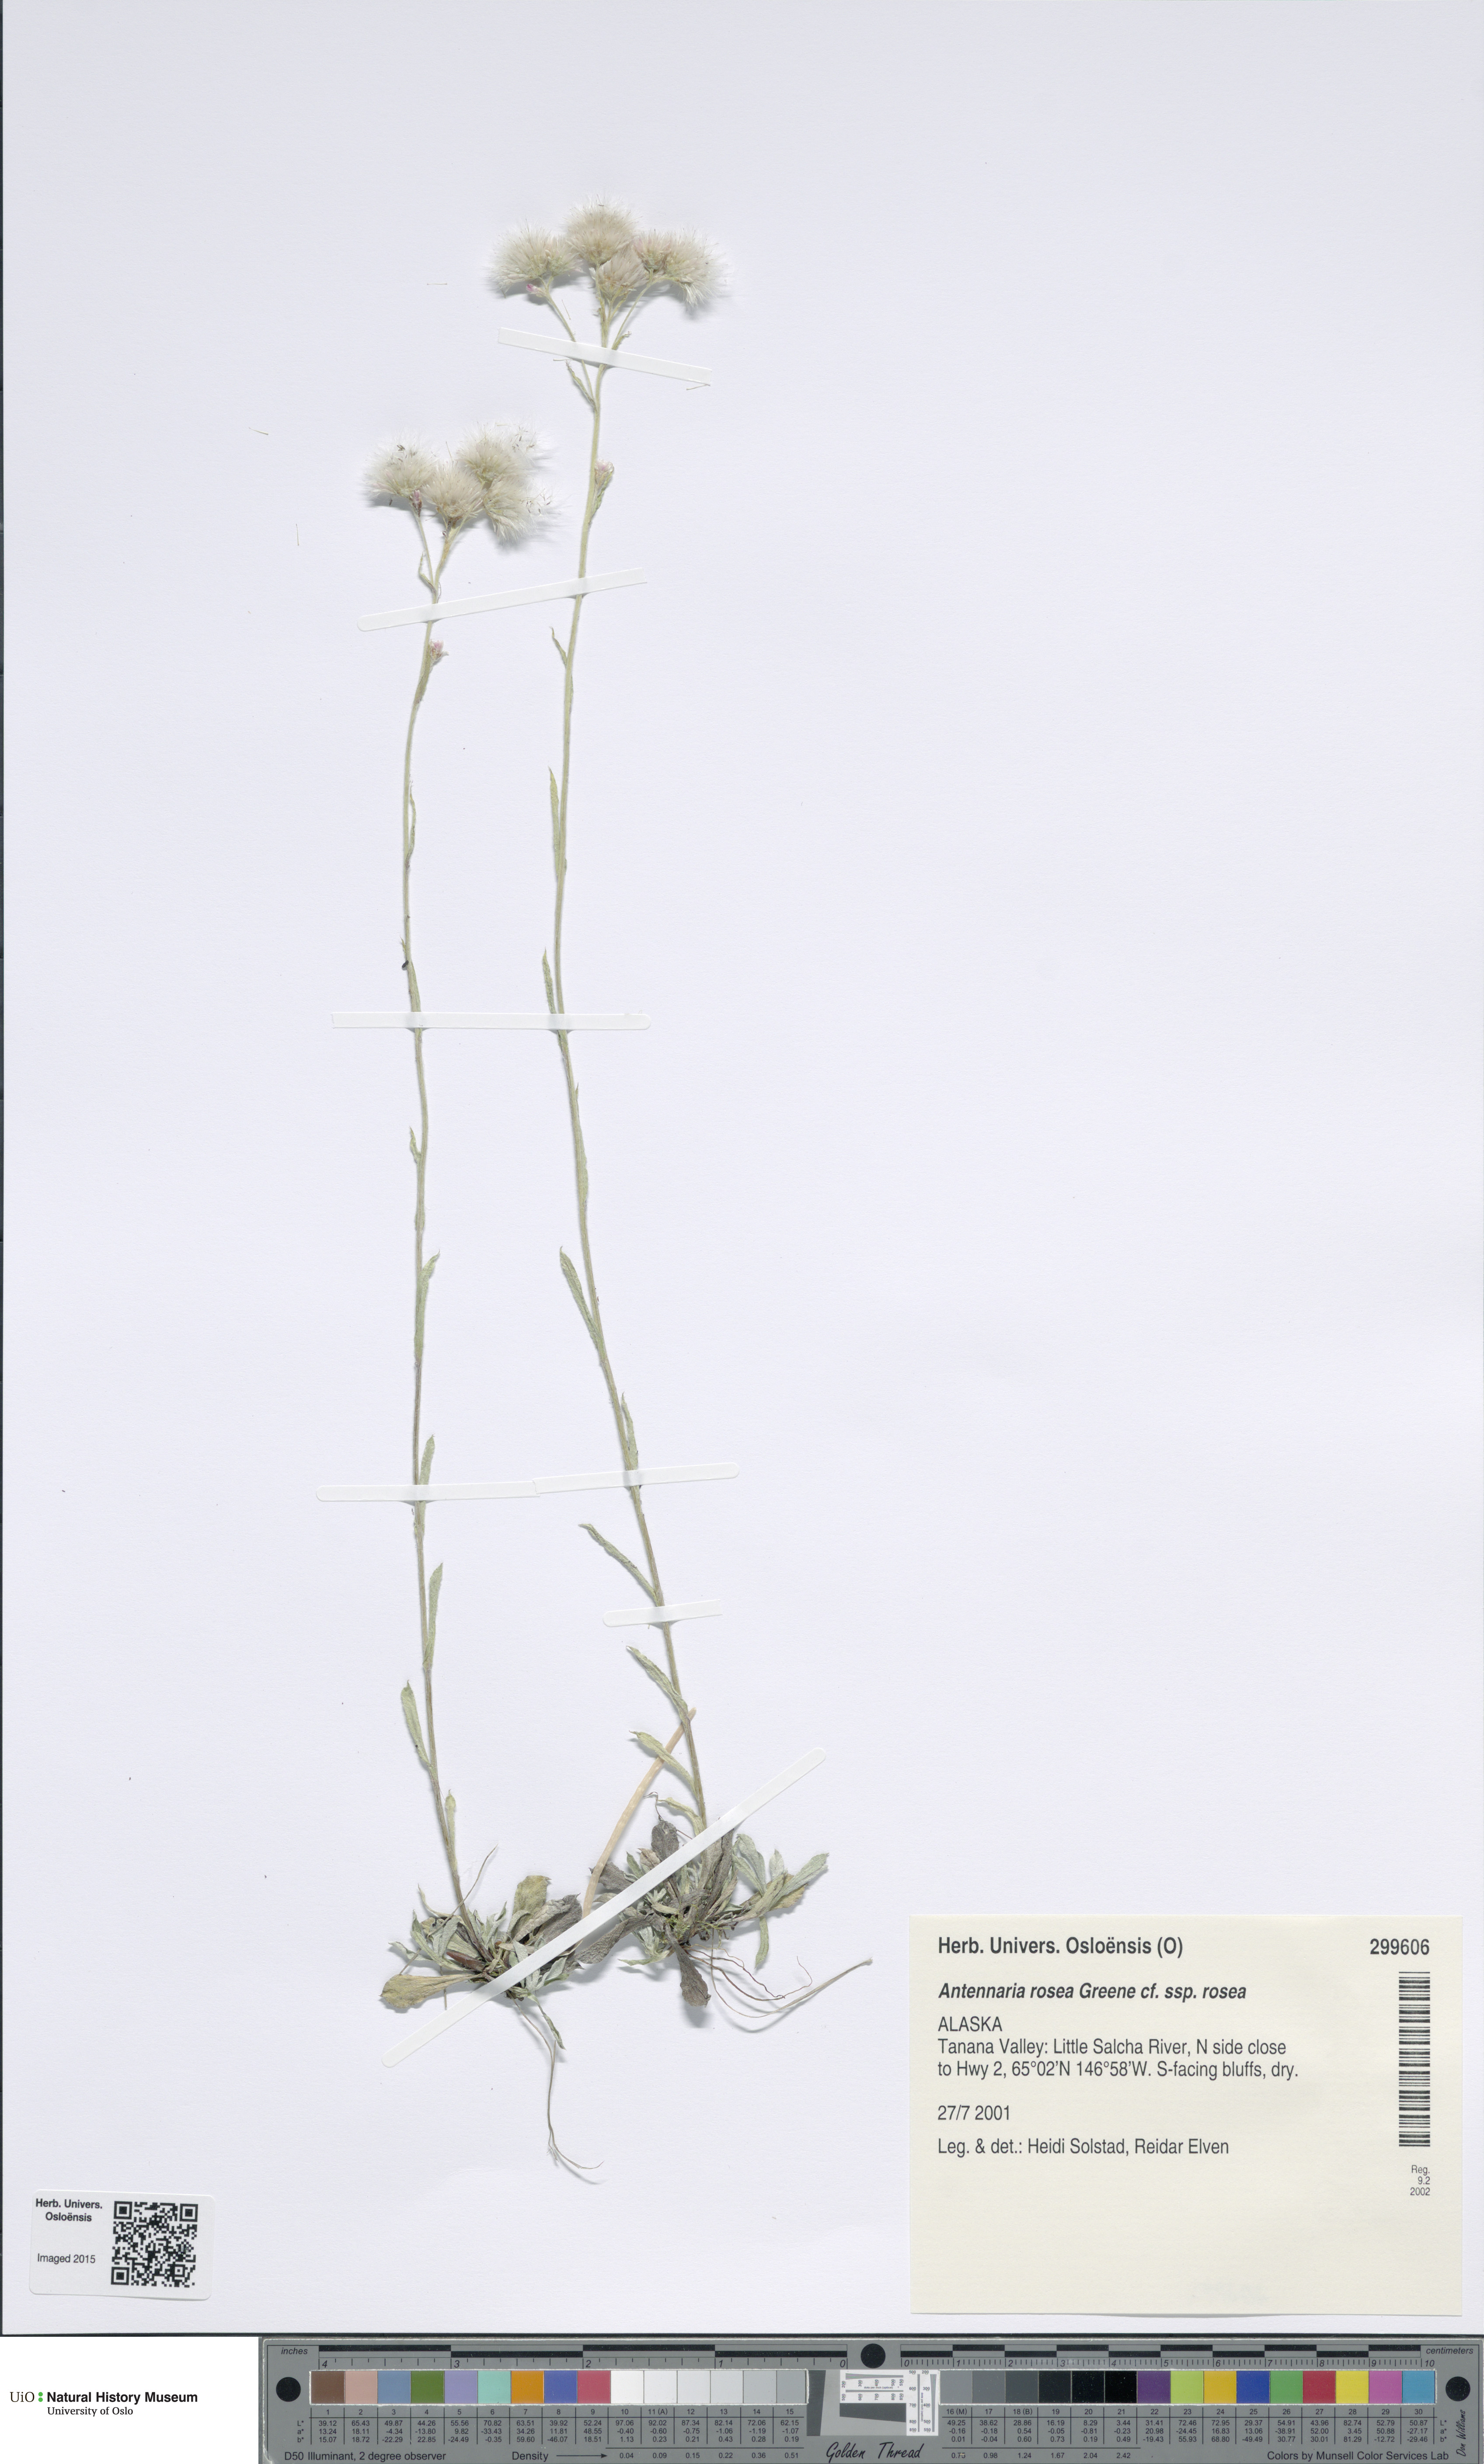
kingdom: Plantae
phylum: Tracheophyta
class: Magnoliopsida
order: Asterales
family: Asteraceae
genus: Antennaria
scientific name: Antennaria rosea
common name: Rosy pussytoes
